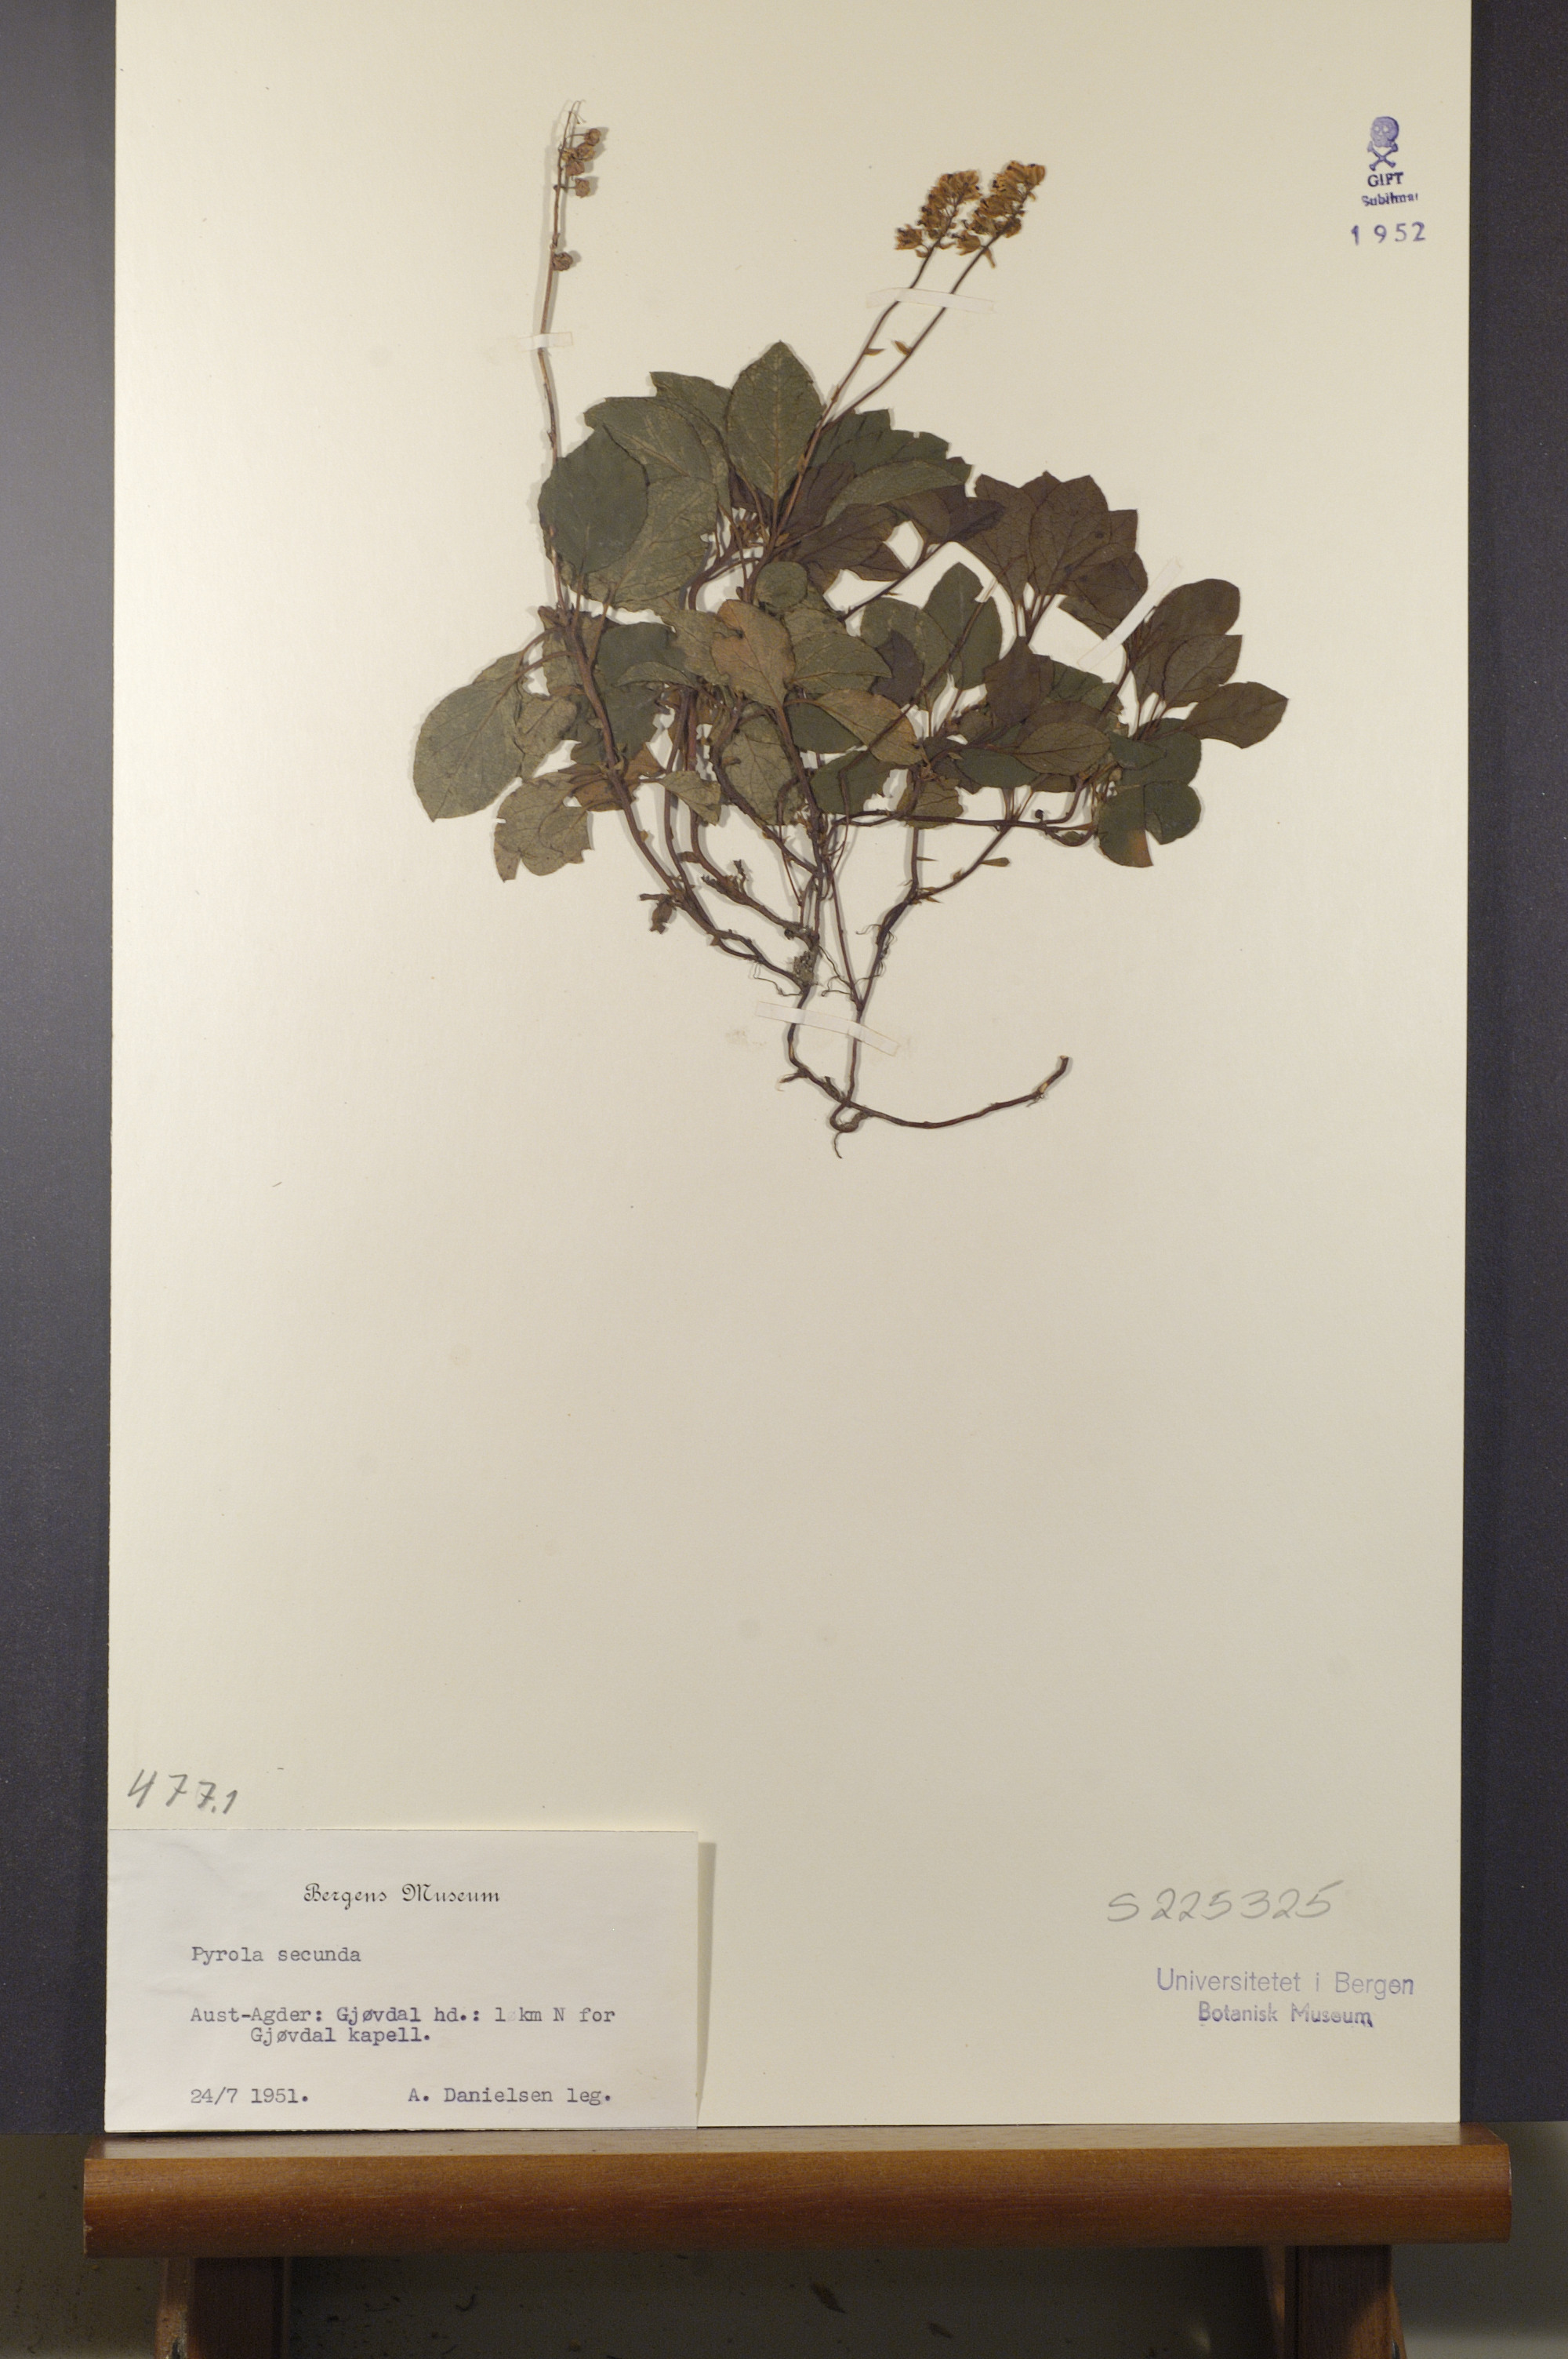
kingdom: Plantae
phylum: Tracheophyta
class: Magnoliopsida
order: Ericales
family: Ericaceae
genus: Orthilia
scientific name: Orthilia secunda
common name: One-sided orthilia
